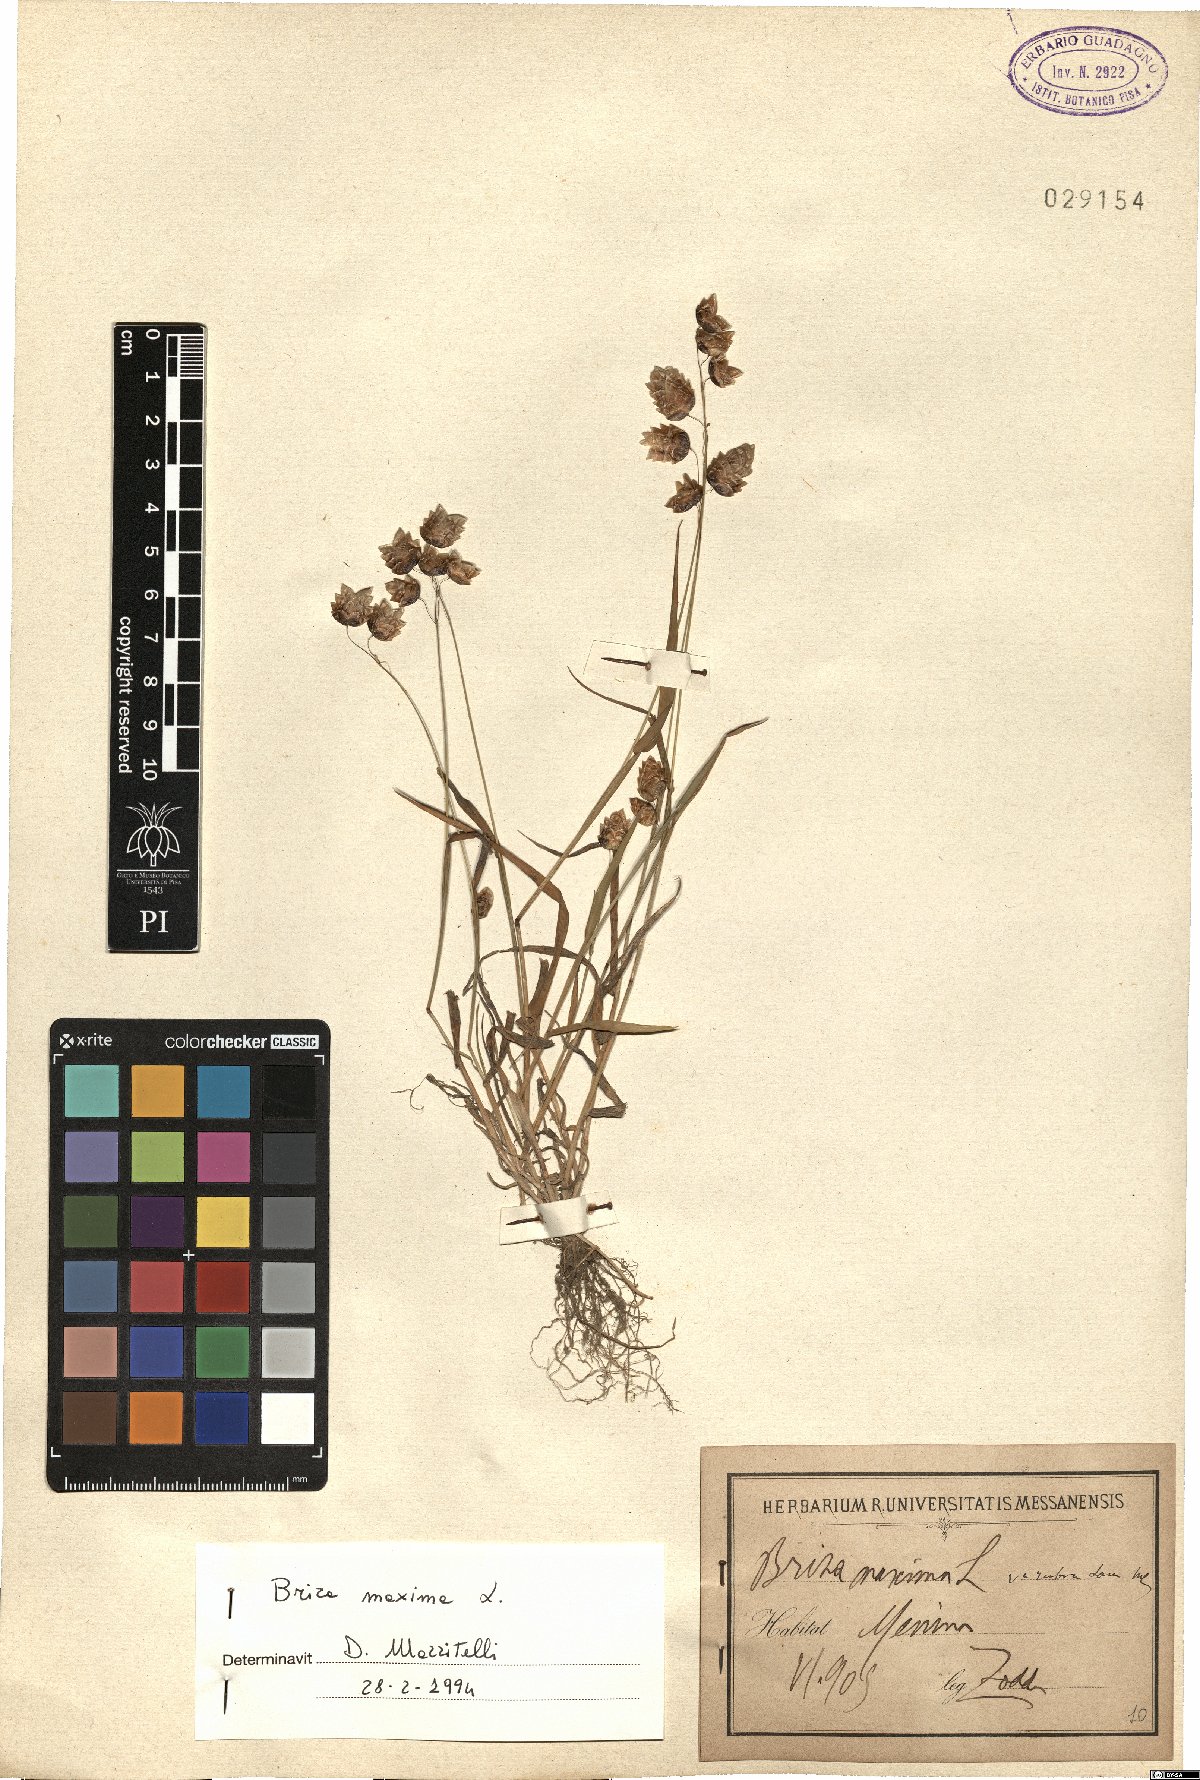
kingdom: Plantae
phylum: Tracheophyta
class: Liliopsida
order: Poales
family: Poaceae
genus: Briza
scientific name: Briza maxima
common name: Big quakinggrass
